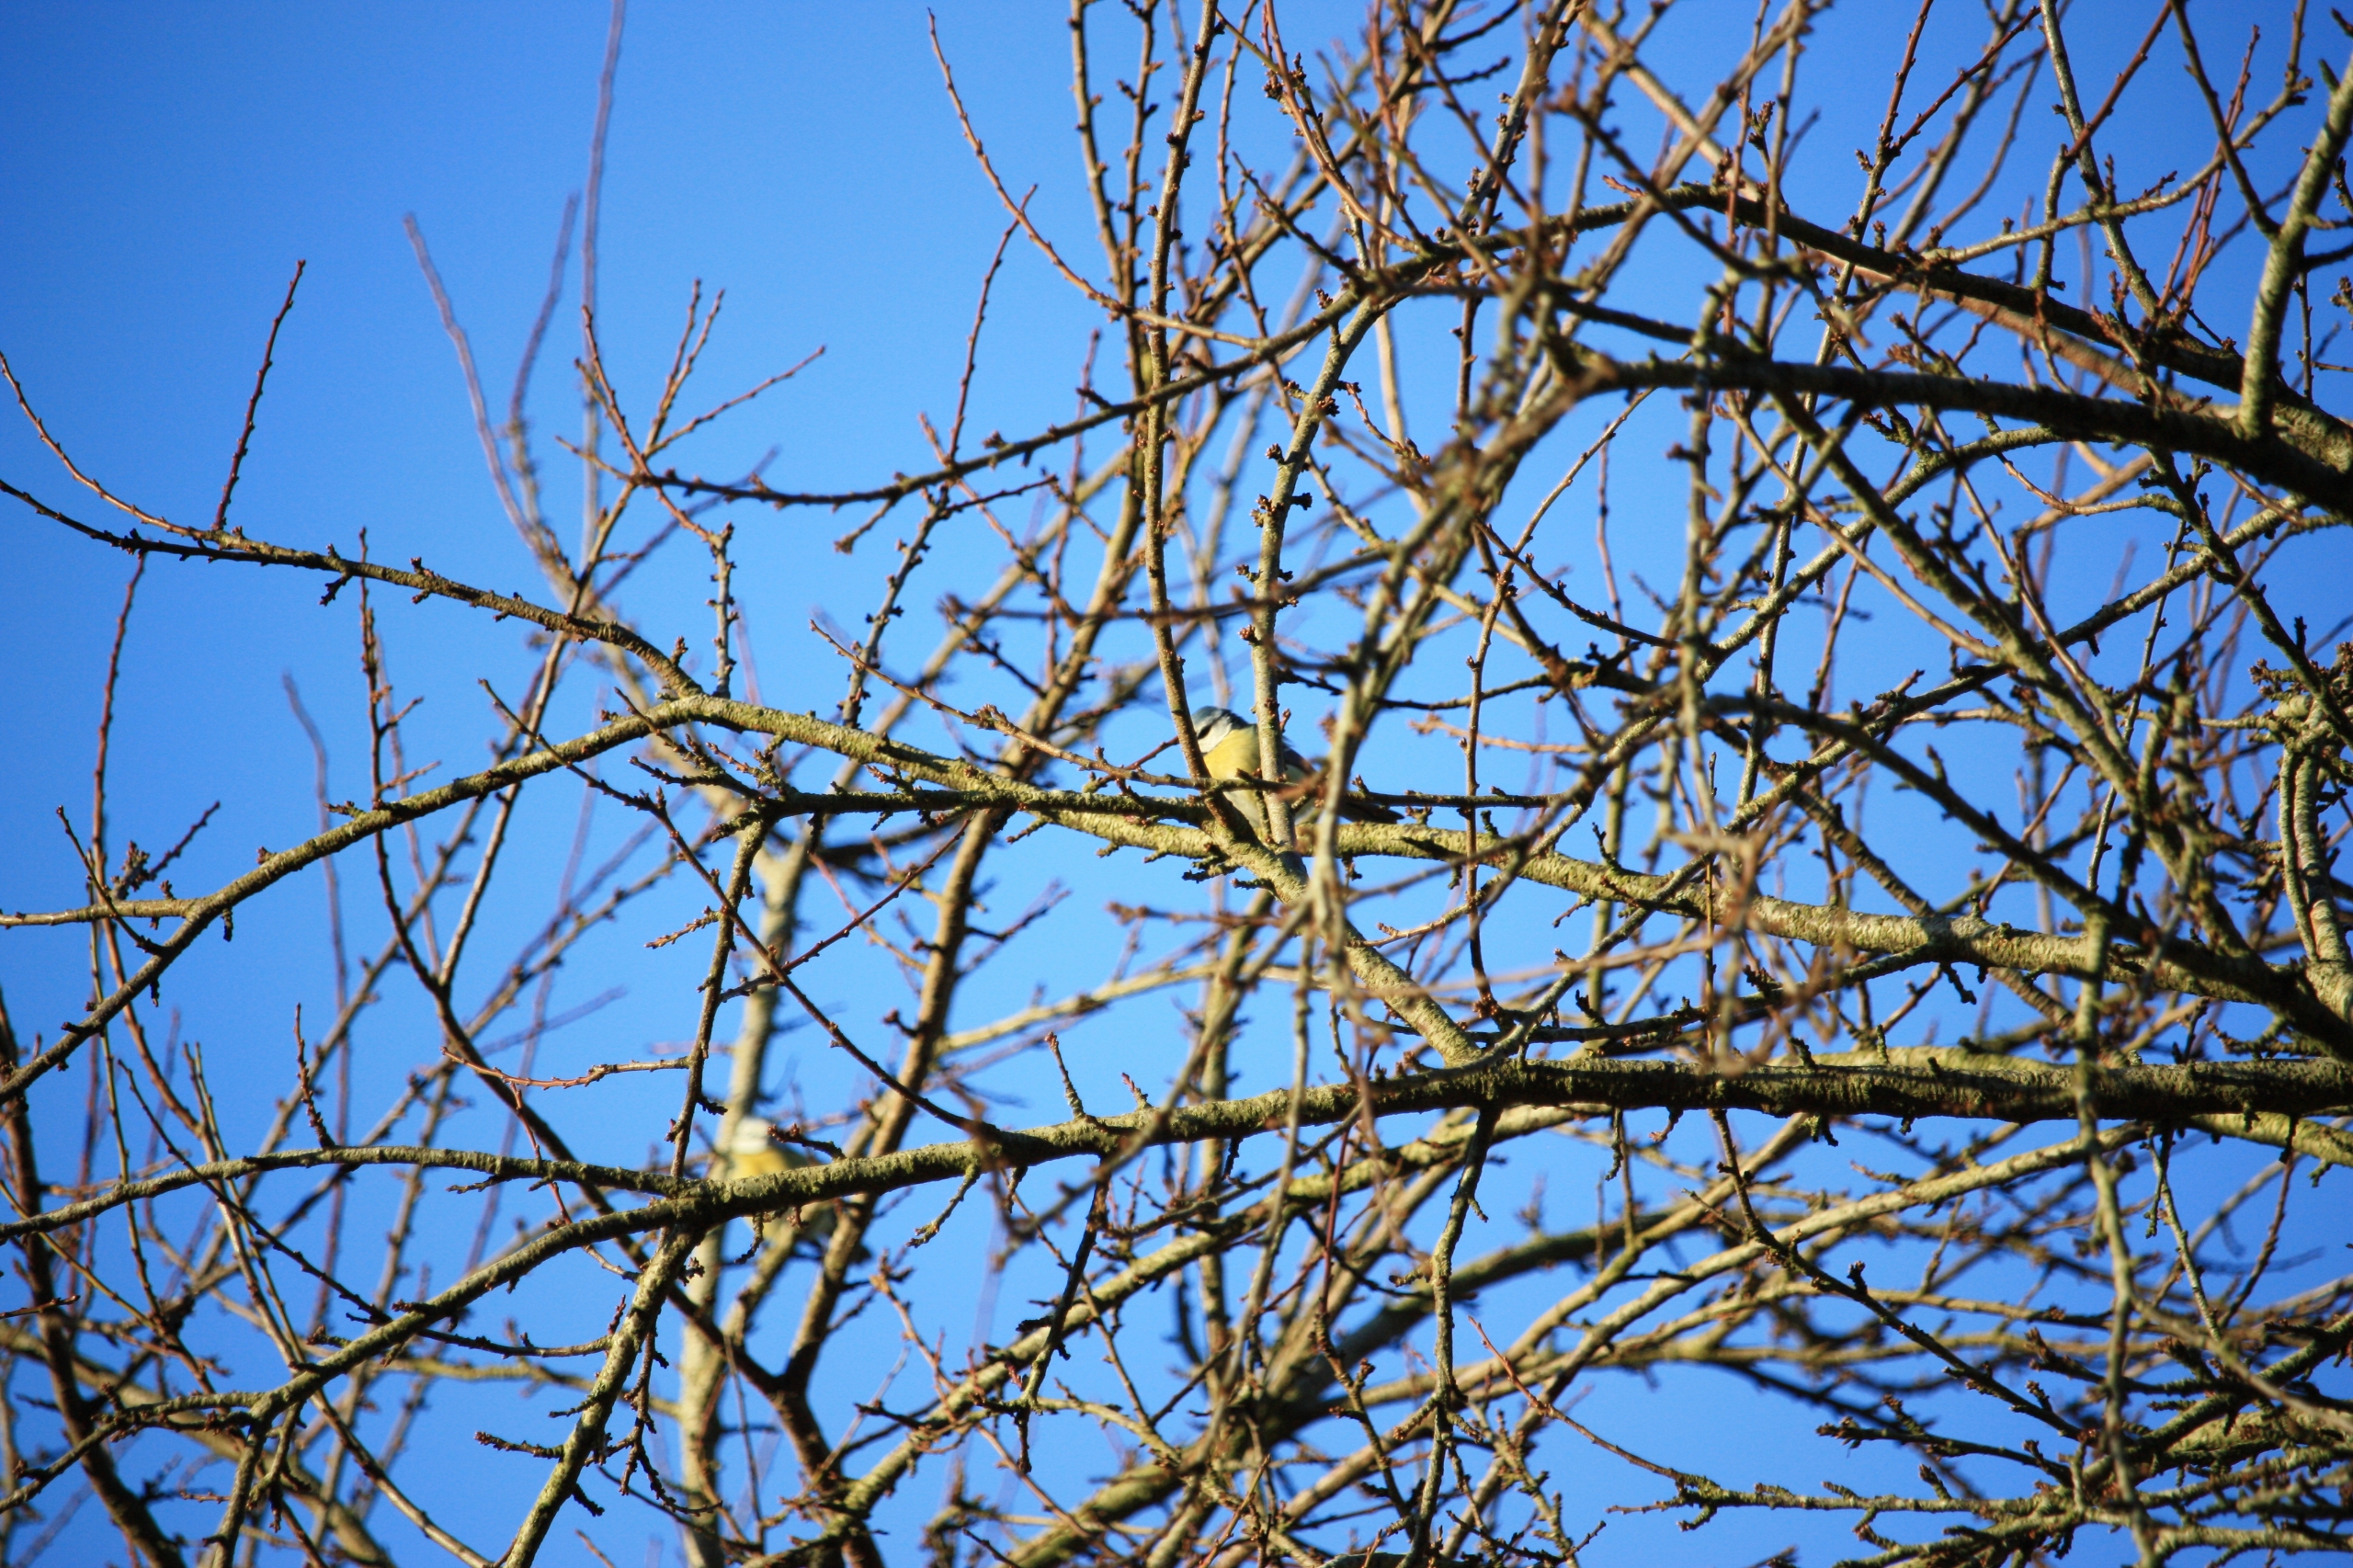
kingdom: Animalia
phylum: Chordata
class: Aves
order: Passeriformes
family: Paridae
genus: Cyanistes
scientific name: Cyanistes caeruleus
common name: Blåmejse
